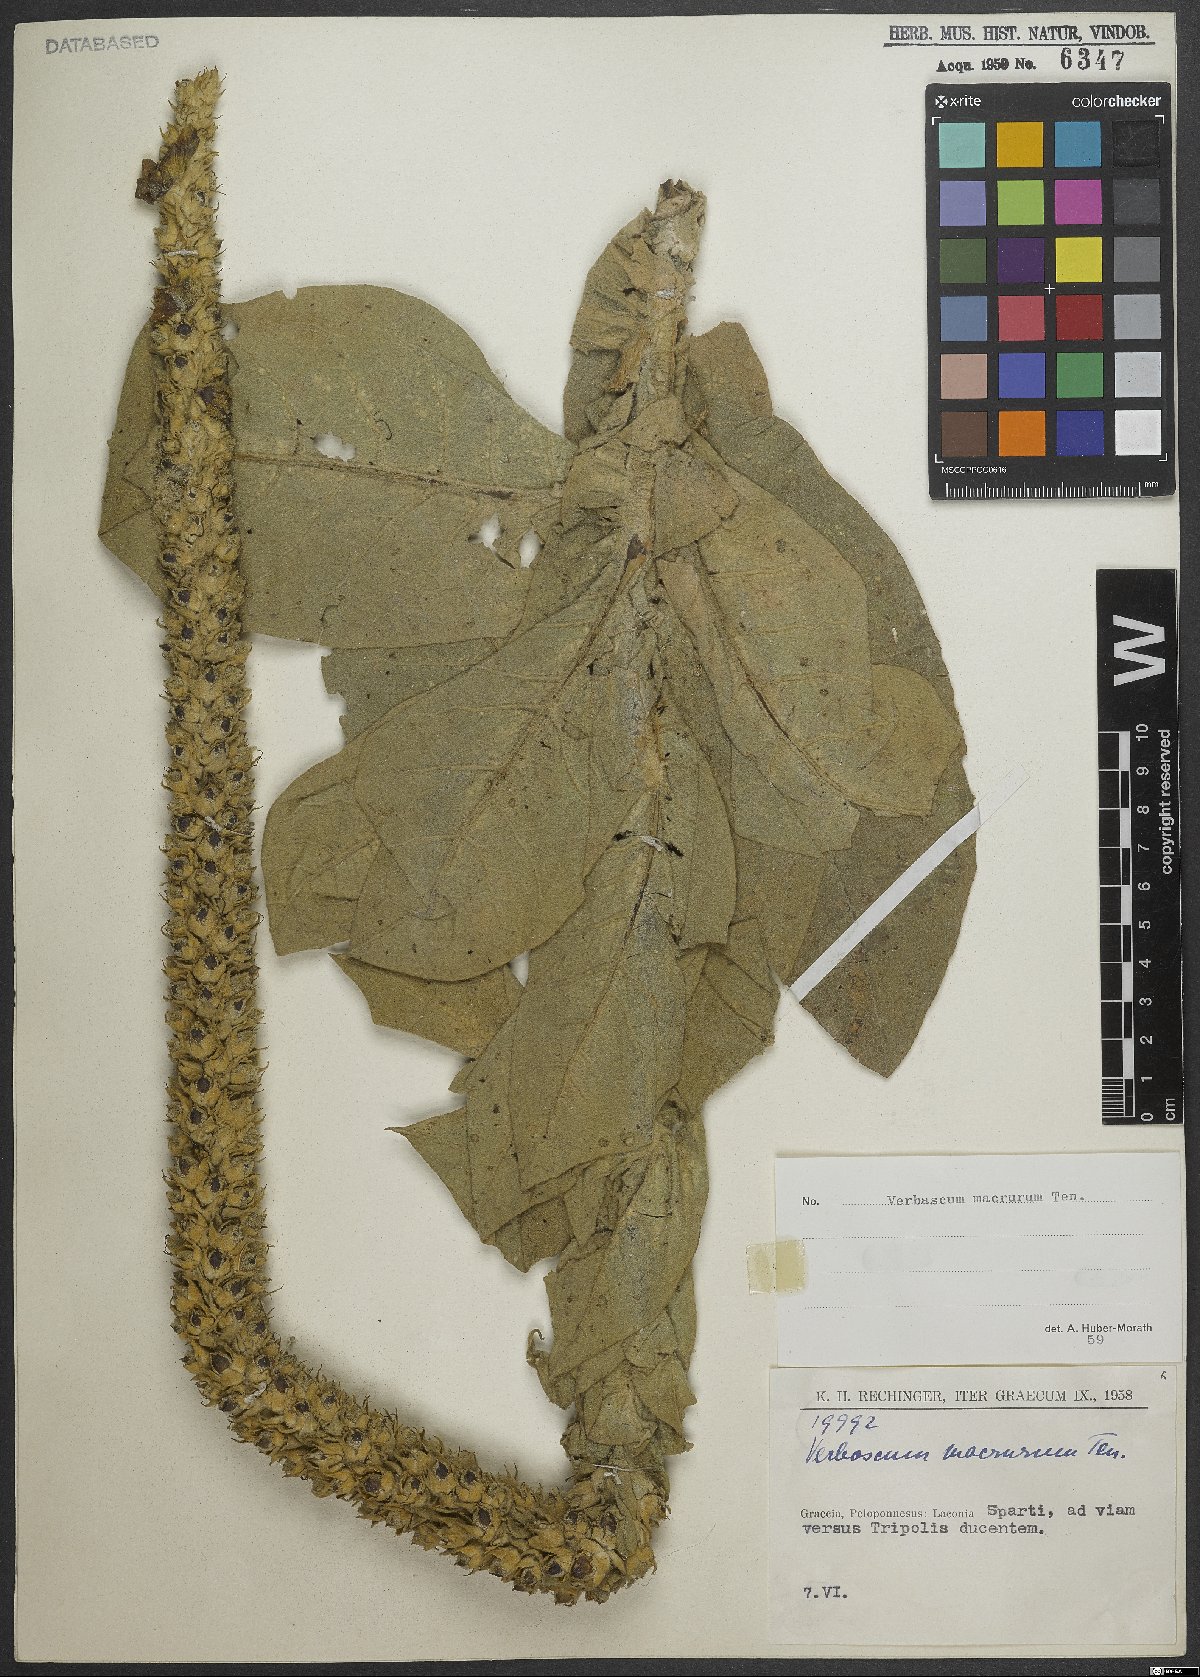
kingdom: Plantae
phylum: Tracheophyta
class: Magnoliopsida
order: Lamiales
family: Scrophulariaceae
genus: Verbascum
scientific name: Verbascum macrurum
